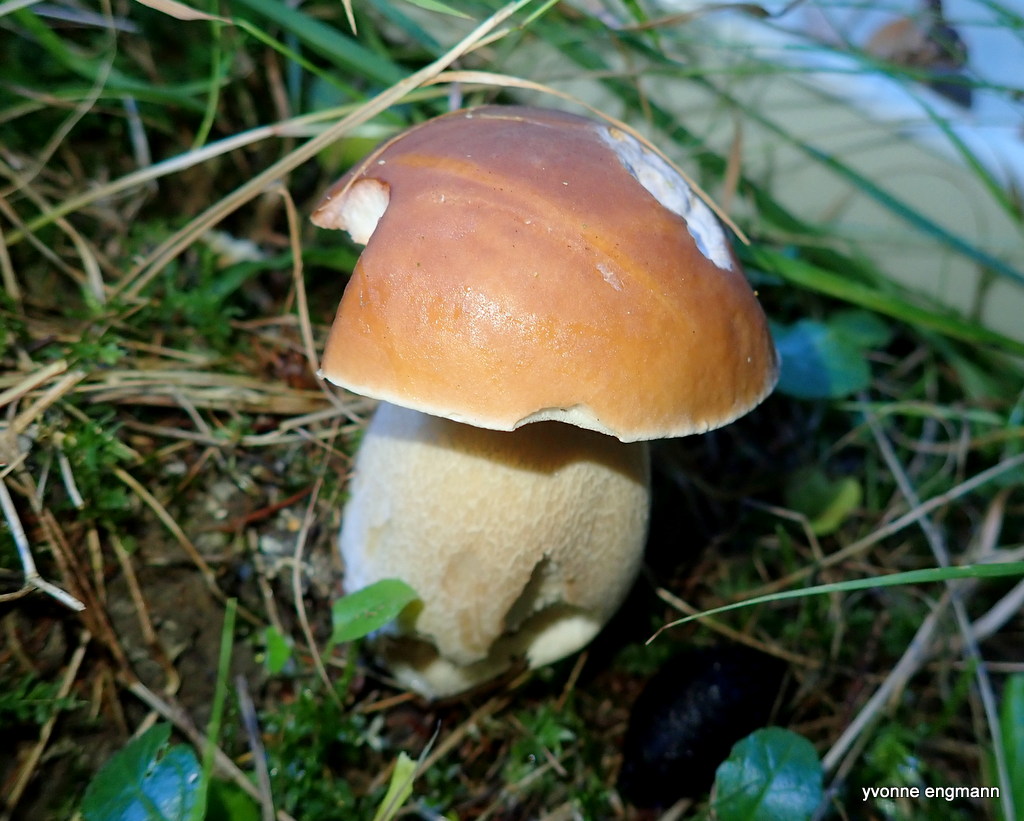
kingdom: Fungi
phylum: Basidiomycota
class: Agaricomycetes
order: Boletales
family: Boletaceae
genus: Boletus
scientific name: Boletus edulis
